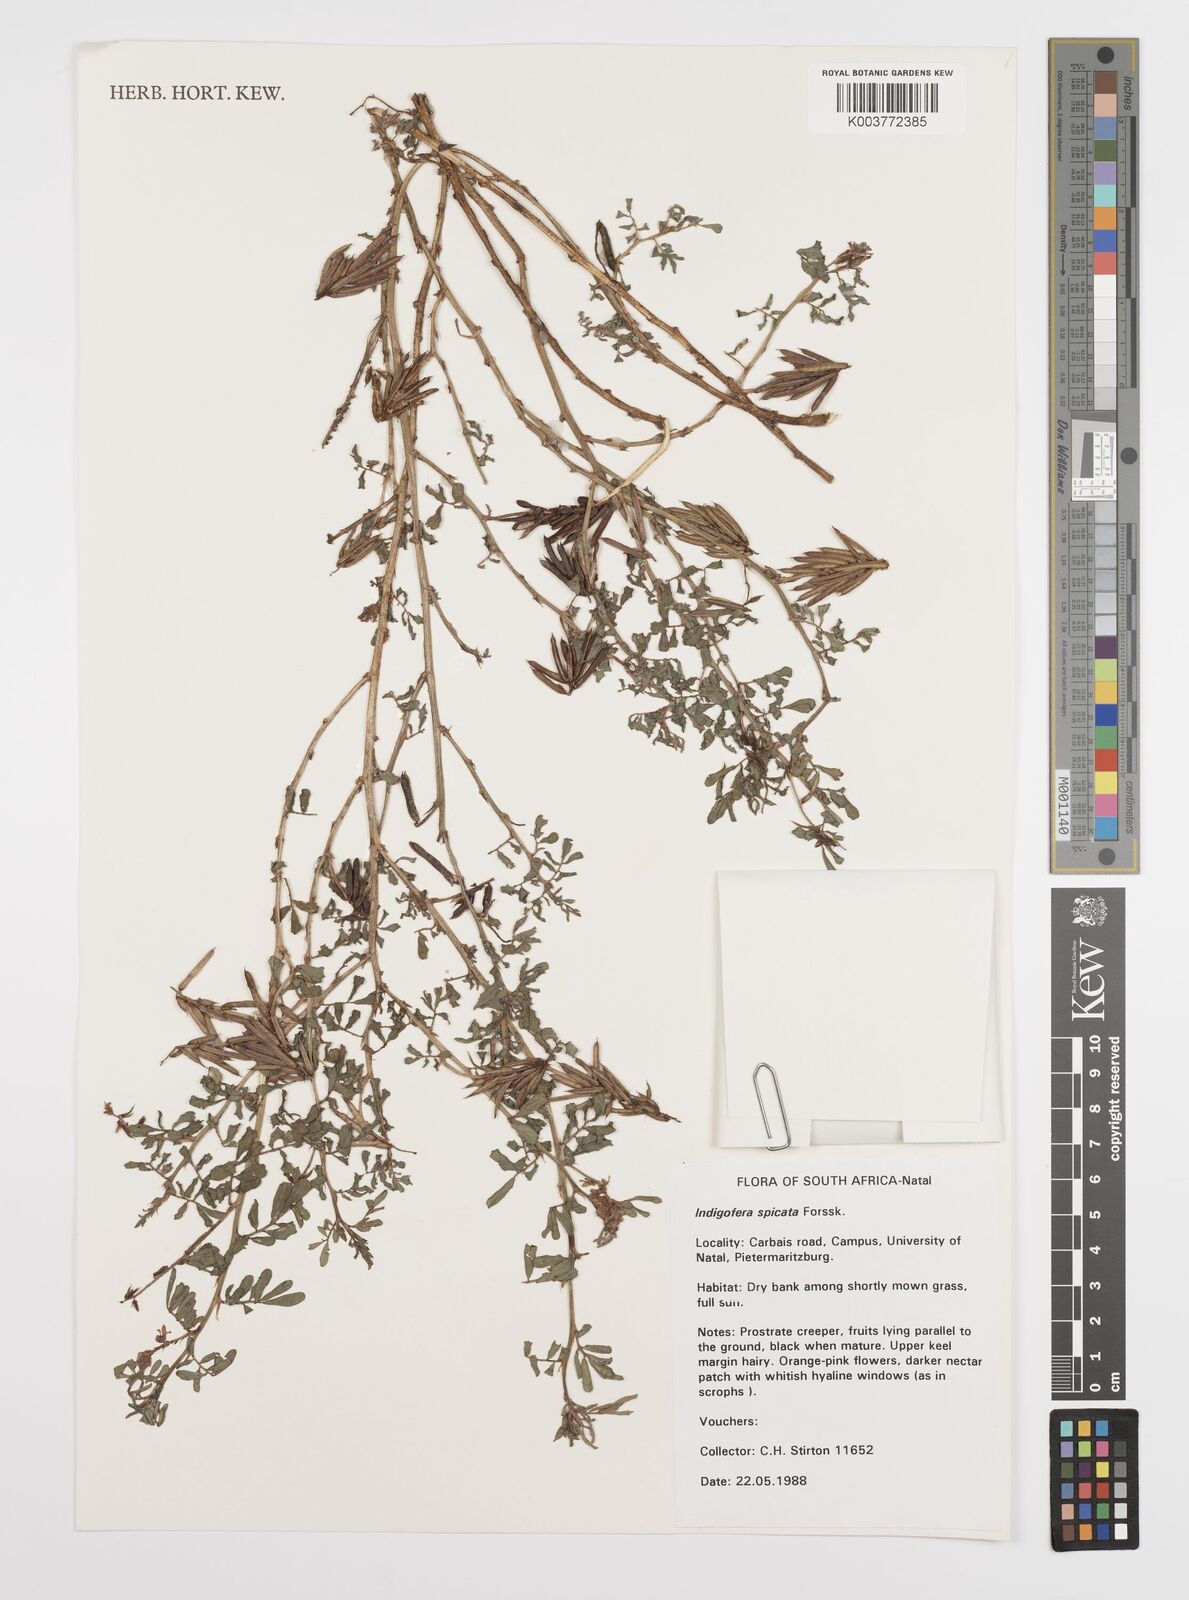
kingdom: Plantae
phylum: Tracheophyta
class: Magnoliopsida
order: Fabales
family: Fabaceae
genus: Indigofera
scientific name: Indigofera hendecaphylla
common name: Trailing indigo
